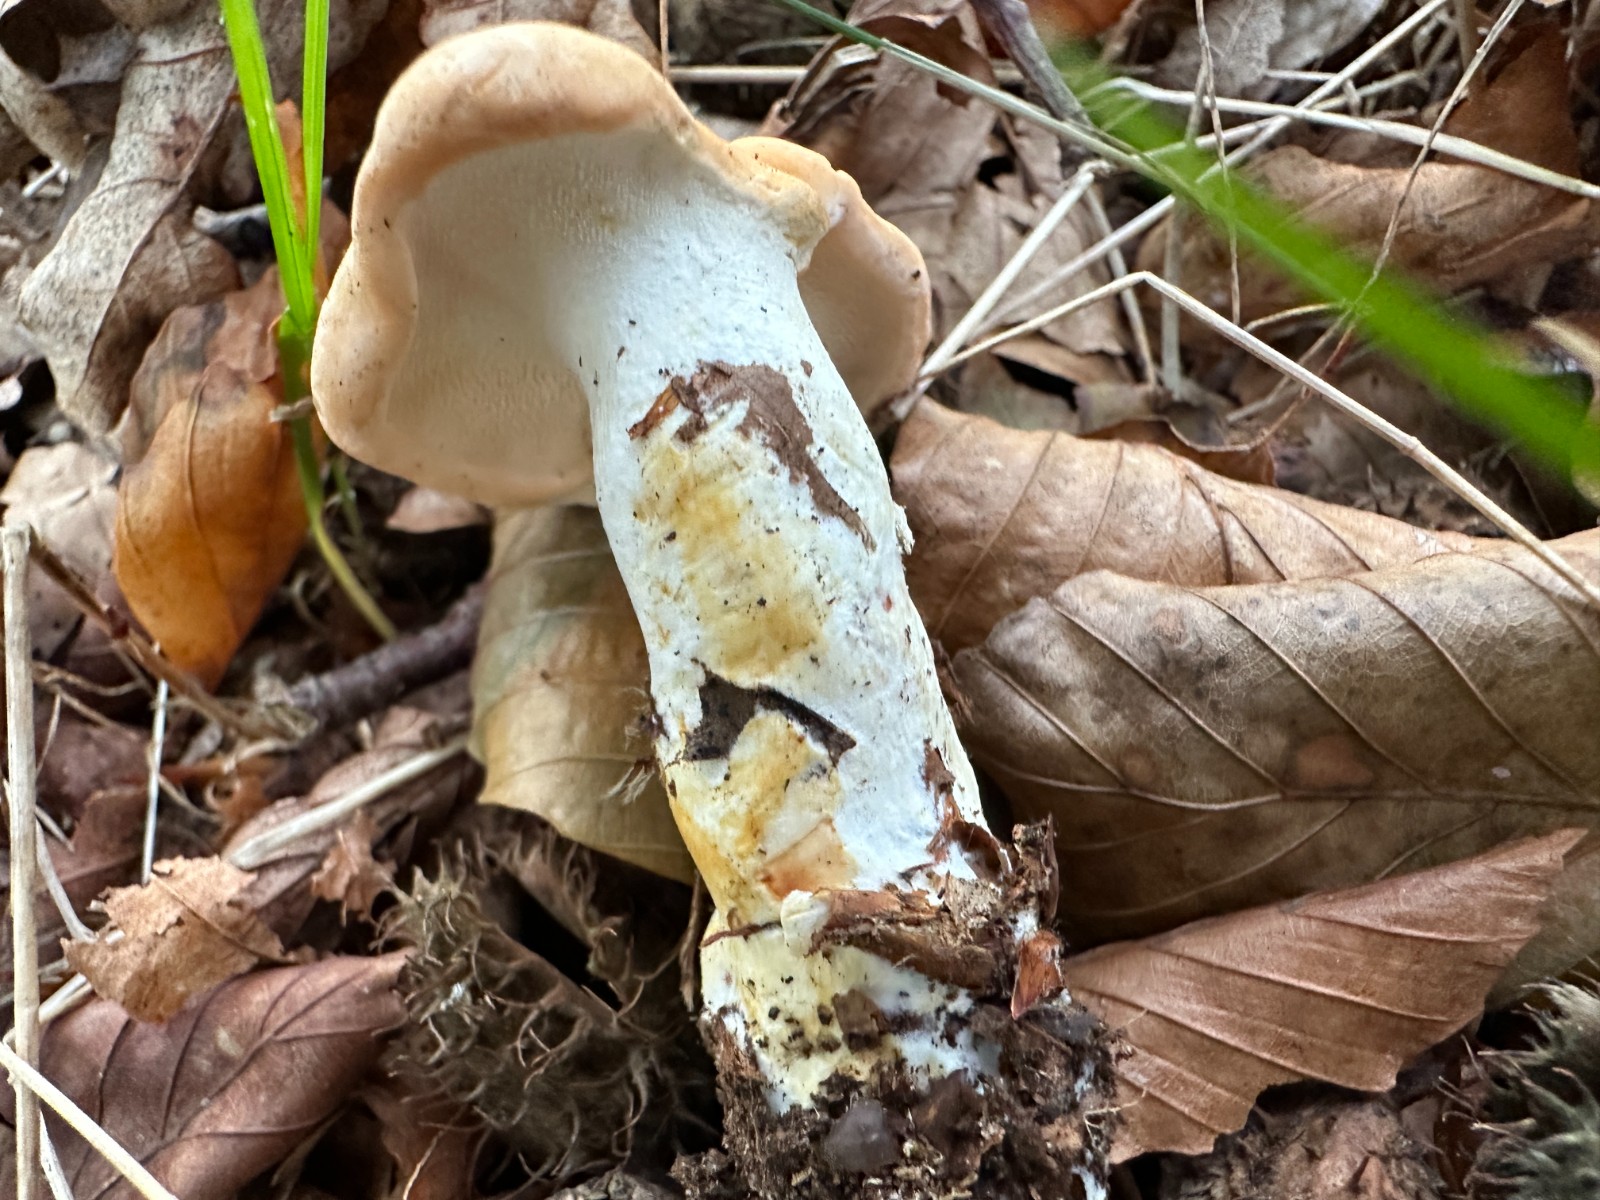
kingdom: Fungi
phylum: Basidiomycota
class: Agaricomycetes
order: Cantharellales
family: Hydnaceae
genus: Hydnum
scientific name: Hydnum slovenicum
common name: slovensk pigsvamp
